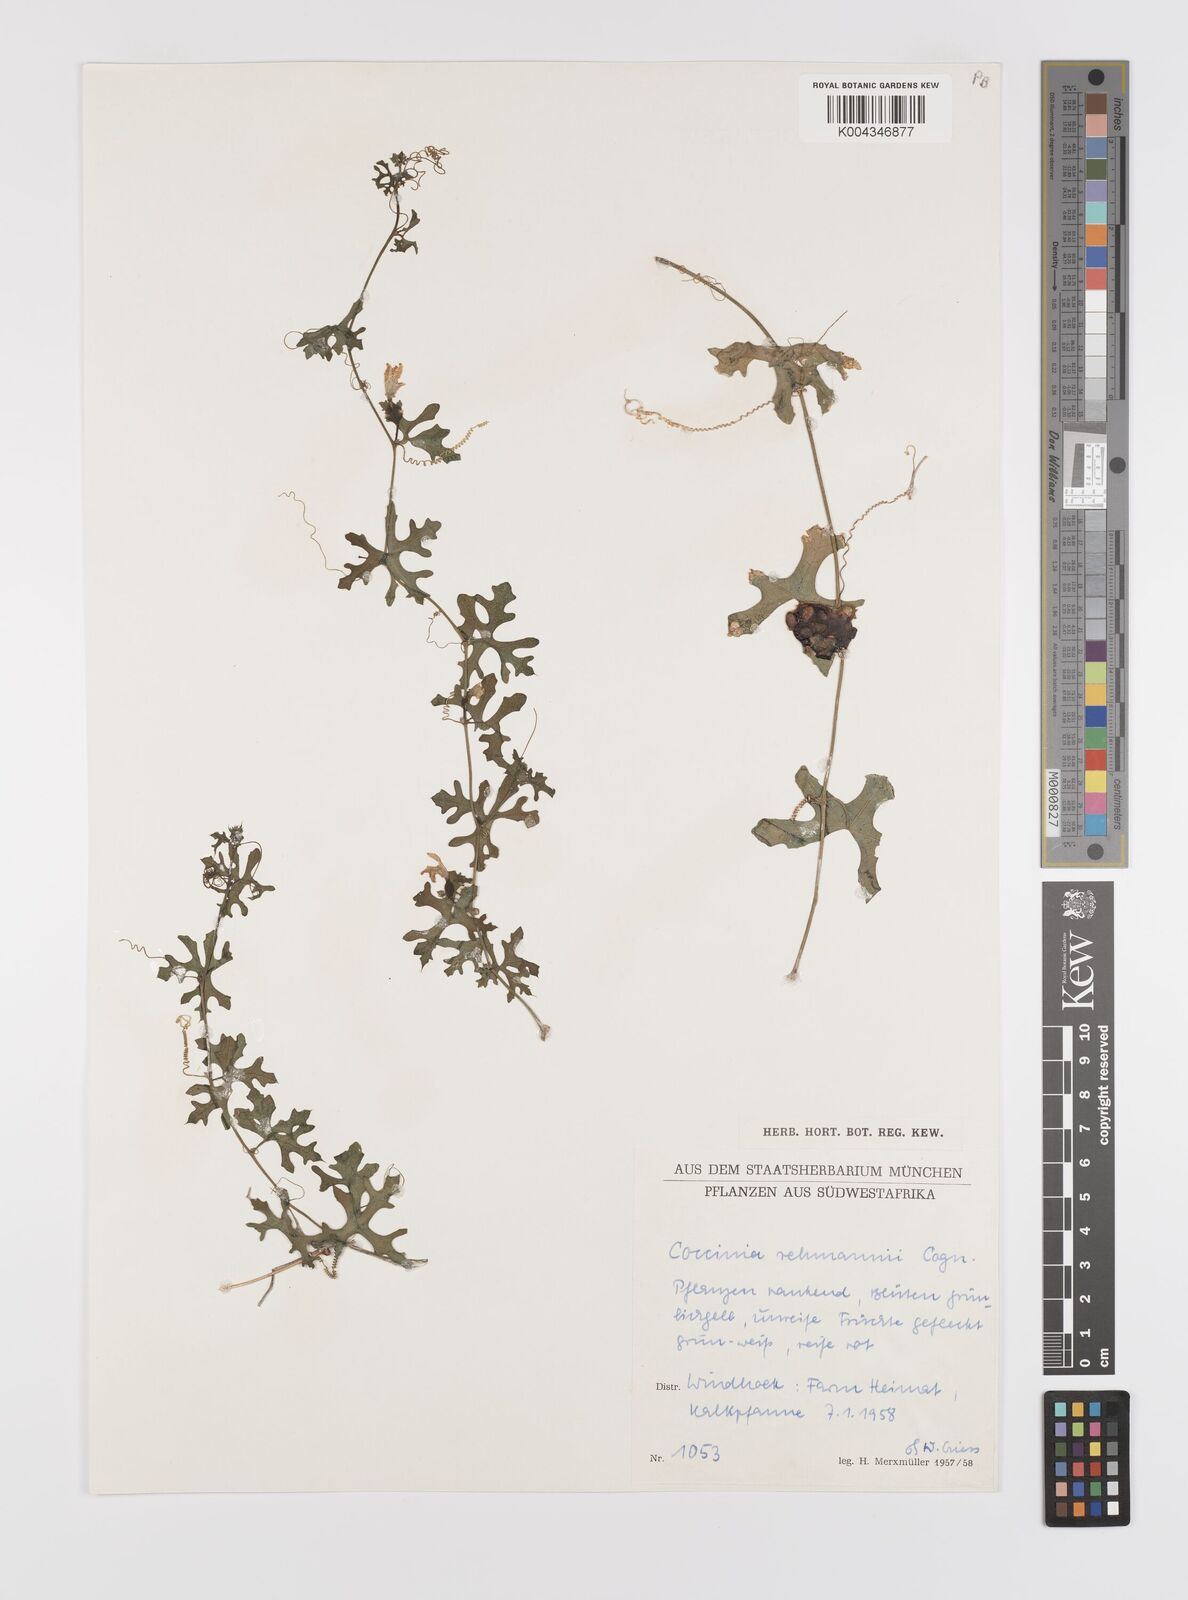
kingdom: Plantae
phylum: Tracheophyta
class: Magnoliopsida
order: Cucurbitales
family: Cucurbitaceae
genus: Coccinia
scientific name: Coccinia rehmannii
